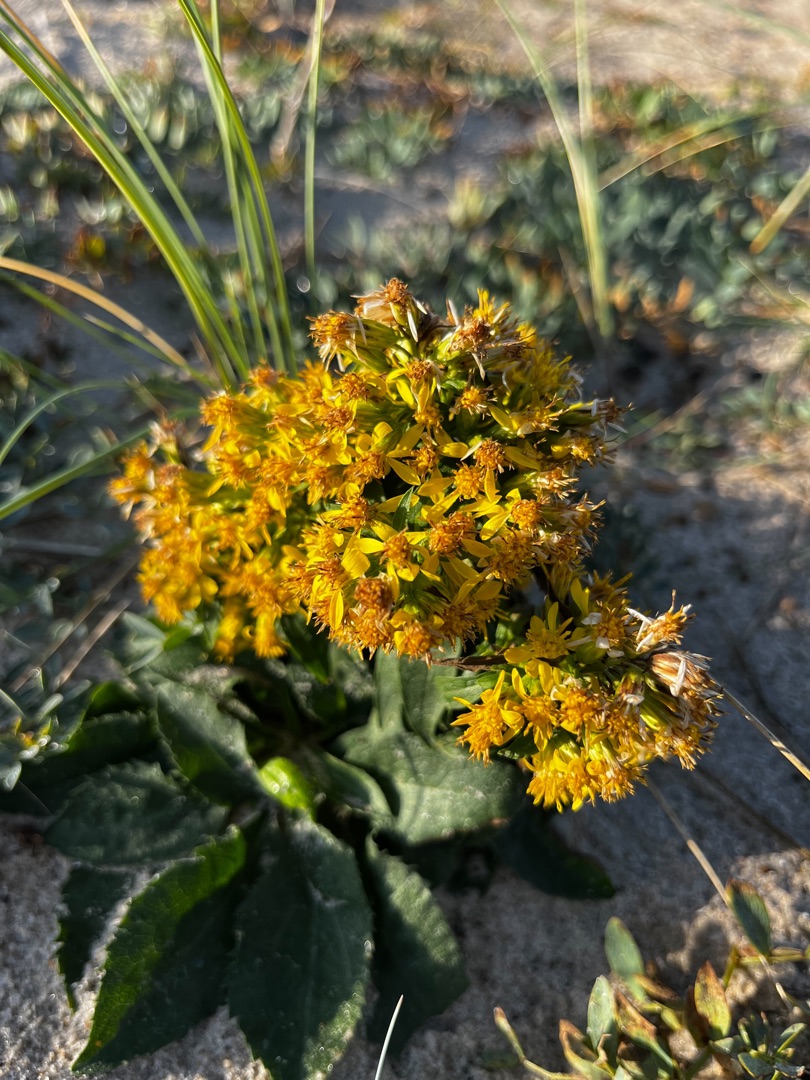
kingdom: Plantae
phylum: Tracheophyta
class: Magnoliopsida
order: Asterales
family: Asteraceae
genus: Solidago
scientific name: Solidago virgaurea
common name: Almindelig gyldenris
